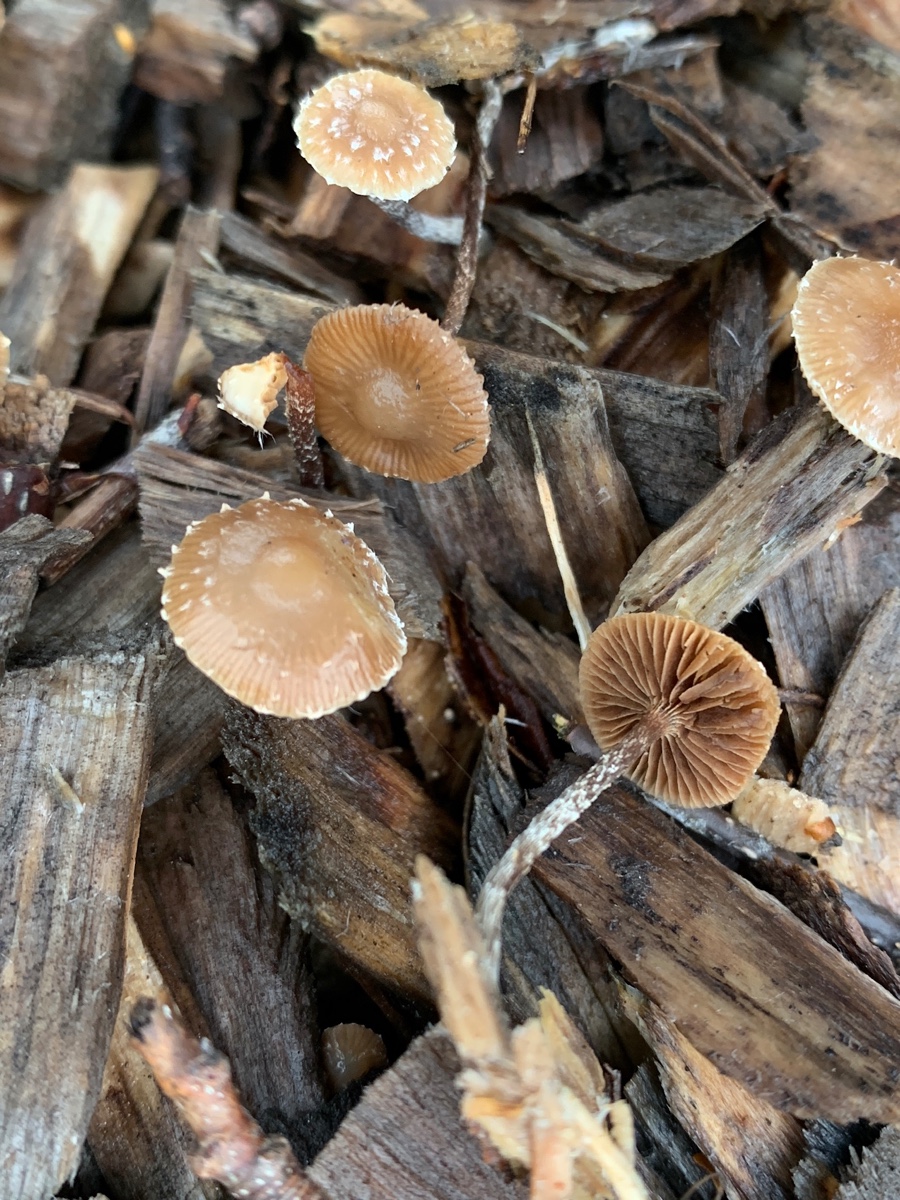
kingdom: Fungi
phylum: Basidiomycota
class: Agaricomycetes
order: Agaricales
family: Tubariaceae
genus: Tubaria
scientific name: Tubaria furfuracea
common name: kliddet fnughat
